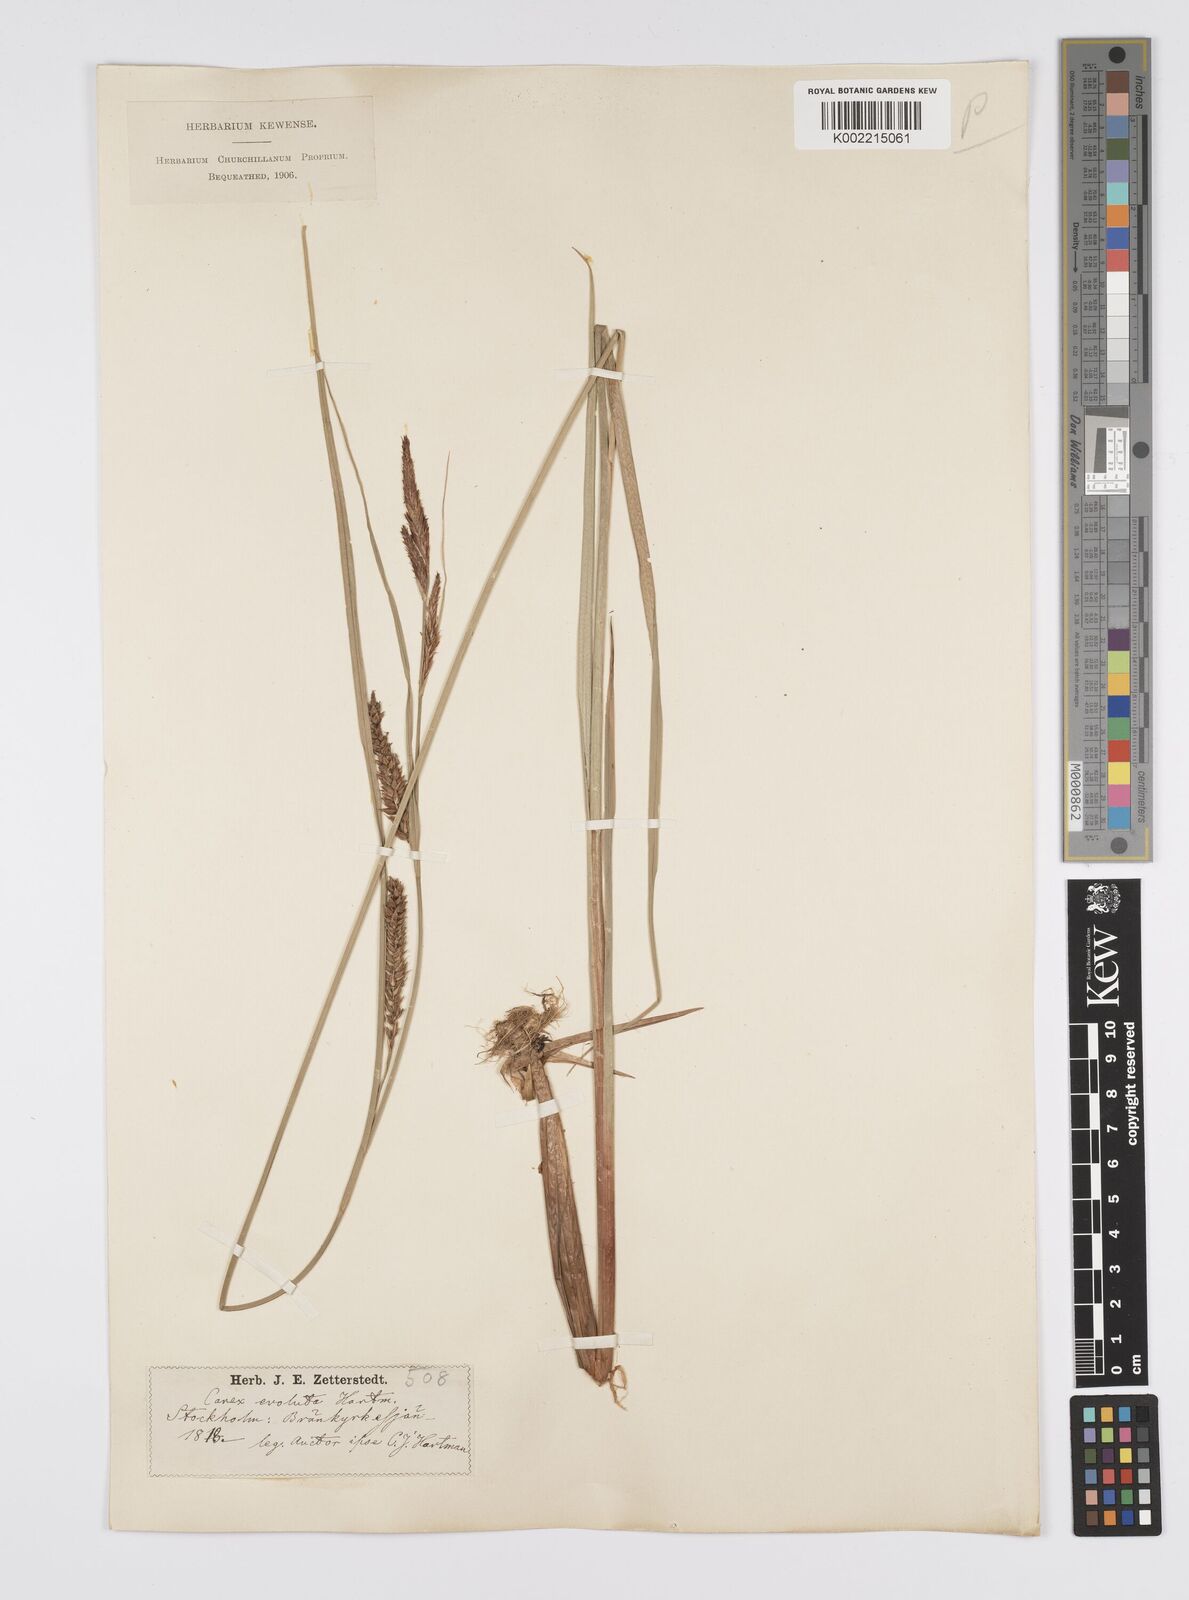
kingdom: Plantae
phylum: Tracheophyta
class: Liliopsida
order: Poales
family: Cyperaceae
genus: Carex
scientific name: Carex evoluta
